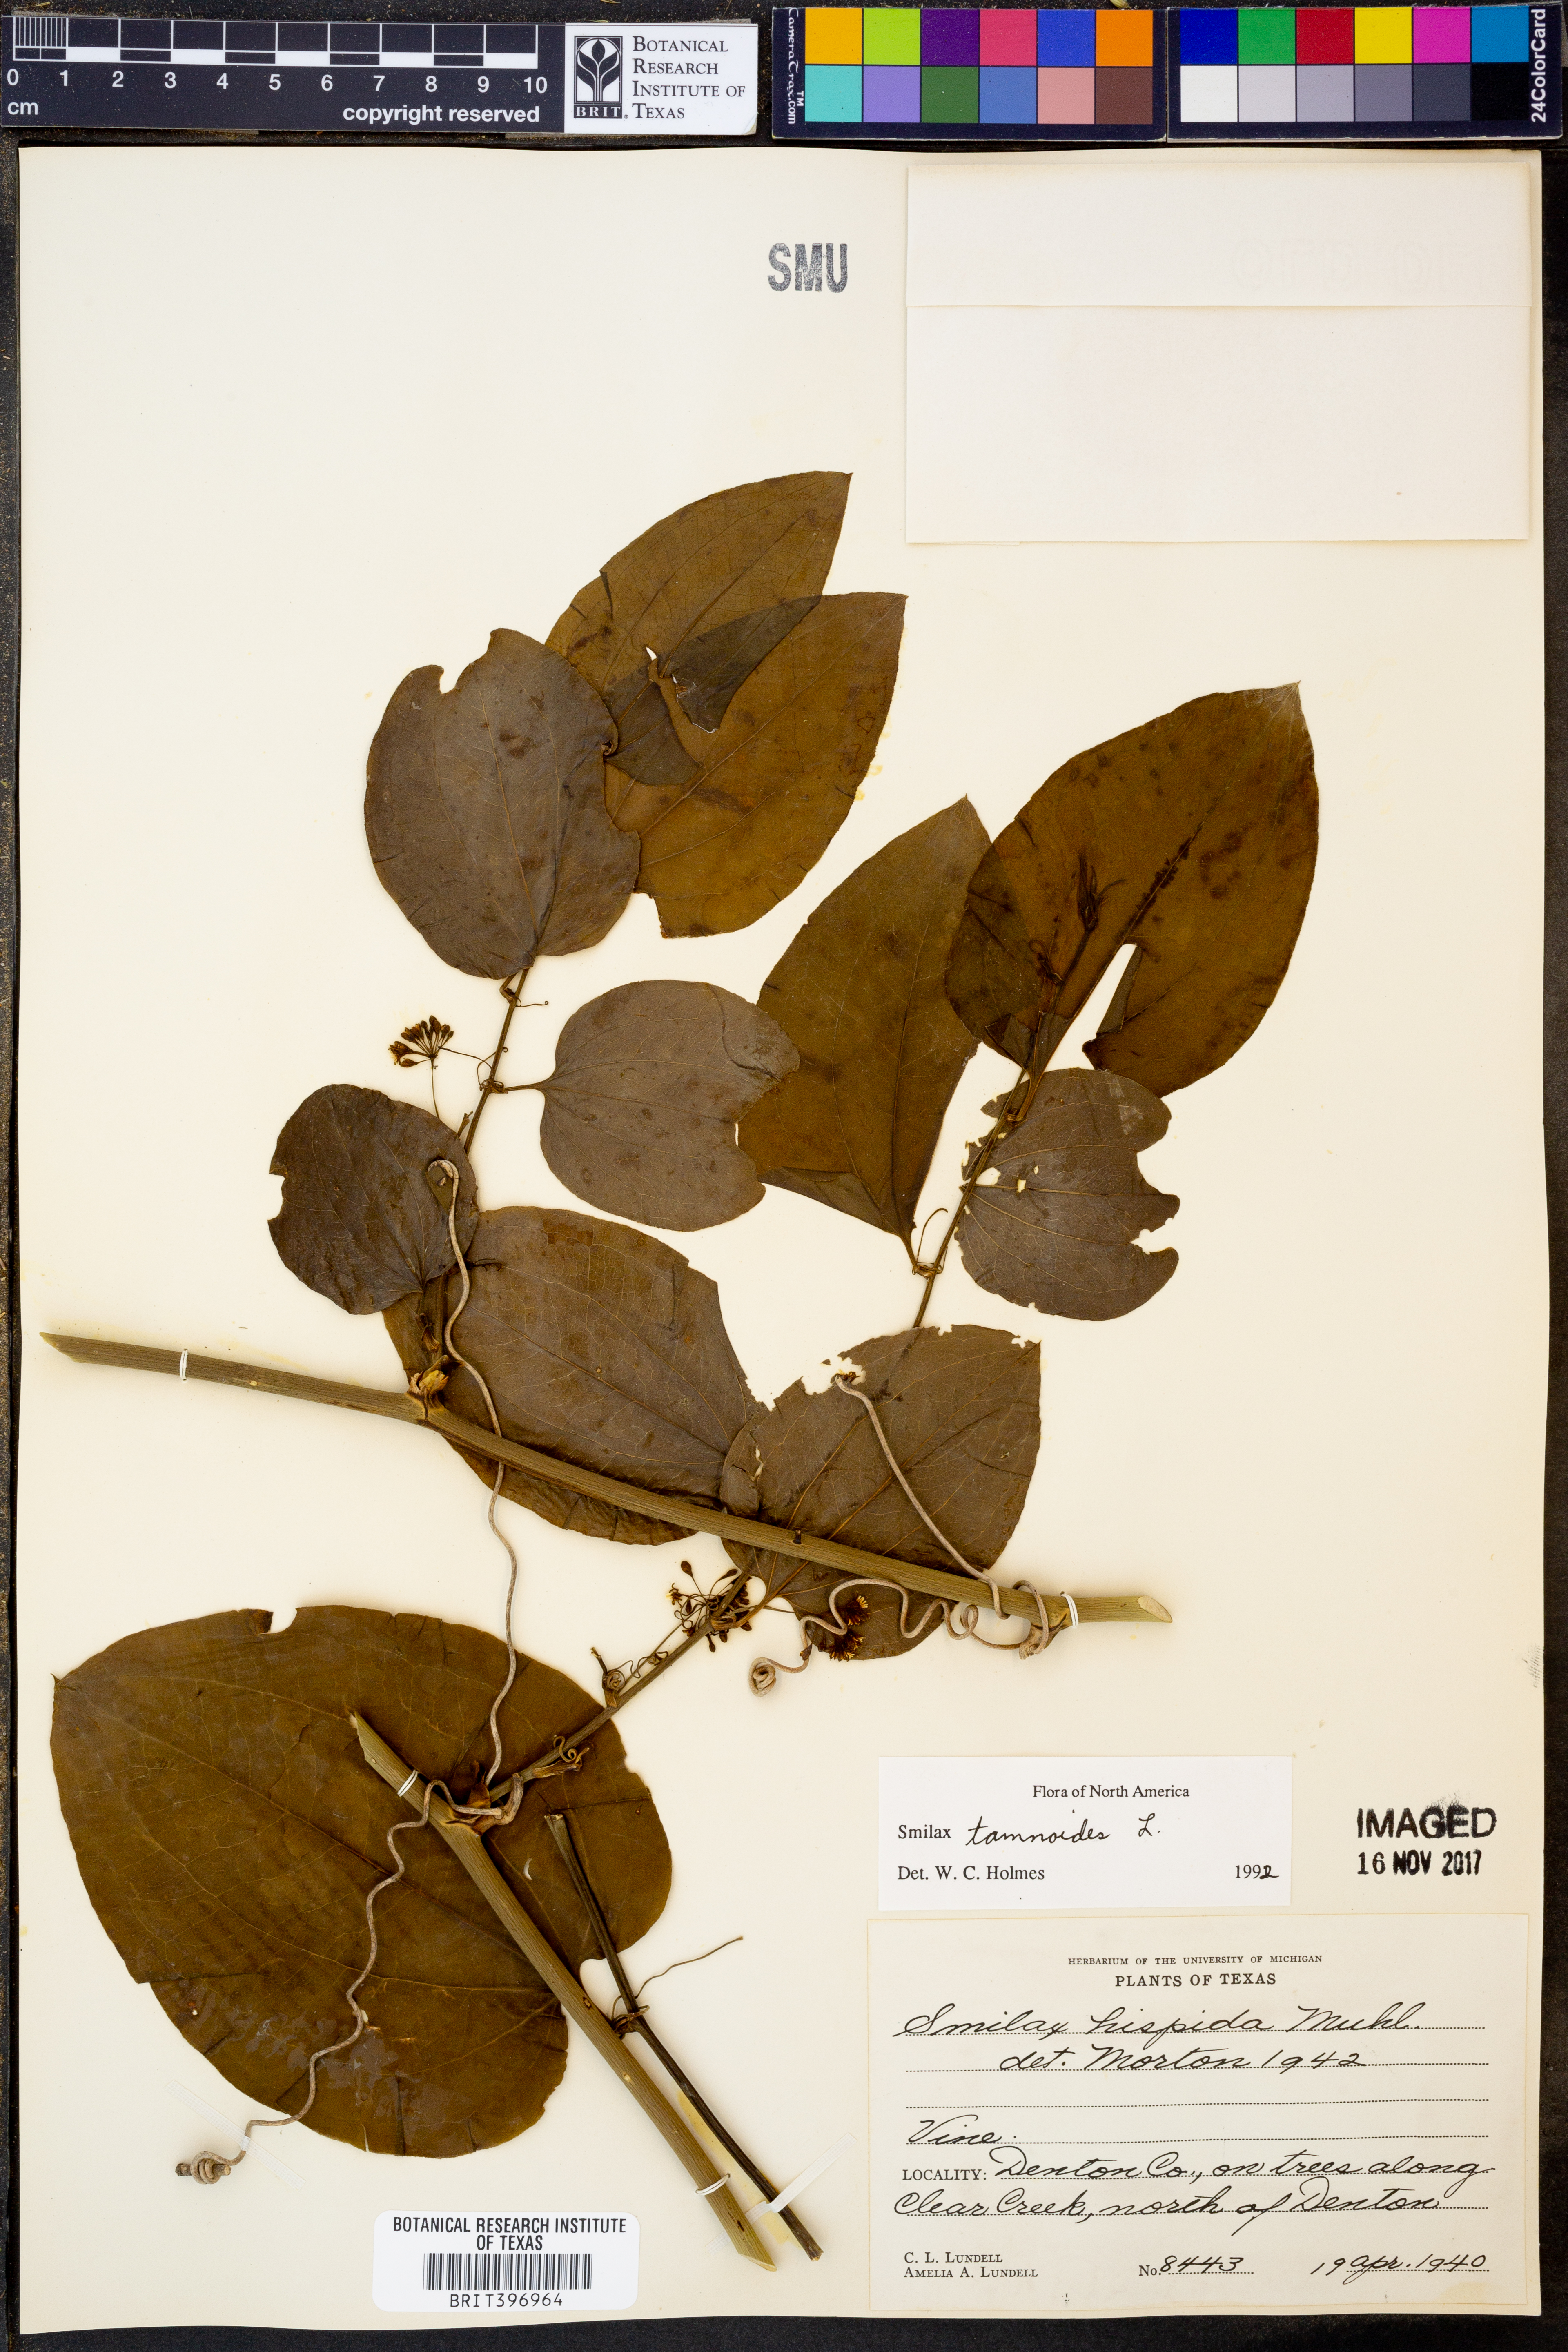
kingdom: Plantae
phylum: Tracheophyta
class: Liliopsida
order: Liliales
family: Smilacaceae
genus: Smilax
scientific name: Smilax tamnoides
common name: Hellfetter
